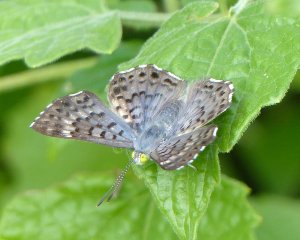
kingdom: Animalia
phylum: Arthropoda
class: Insecta
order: Lepidoptera
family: Riodinidae
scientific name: Riodinidae
